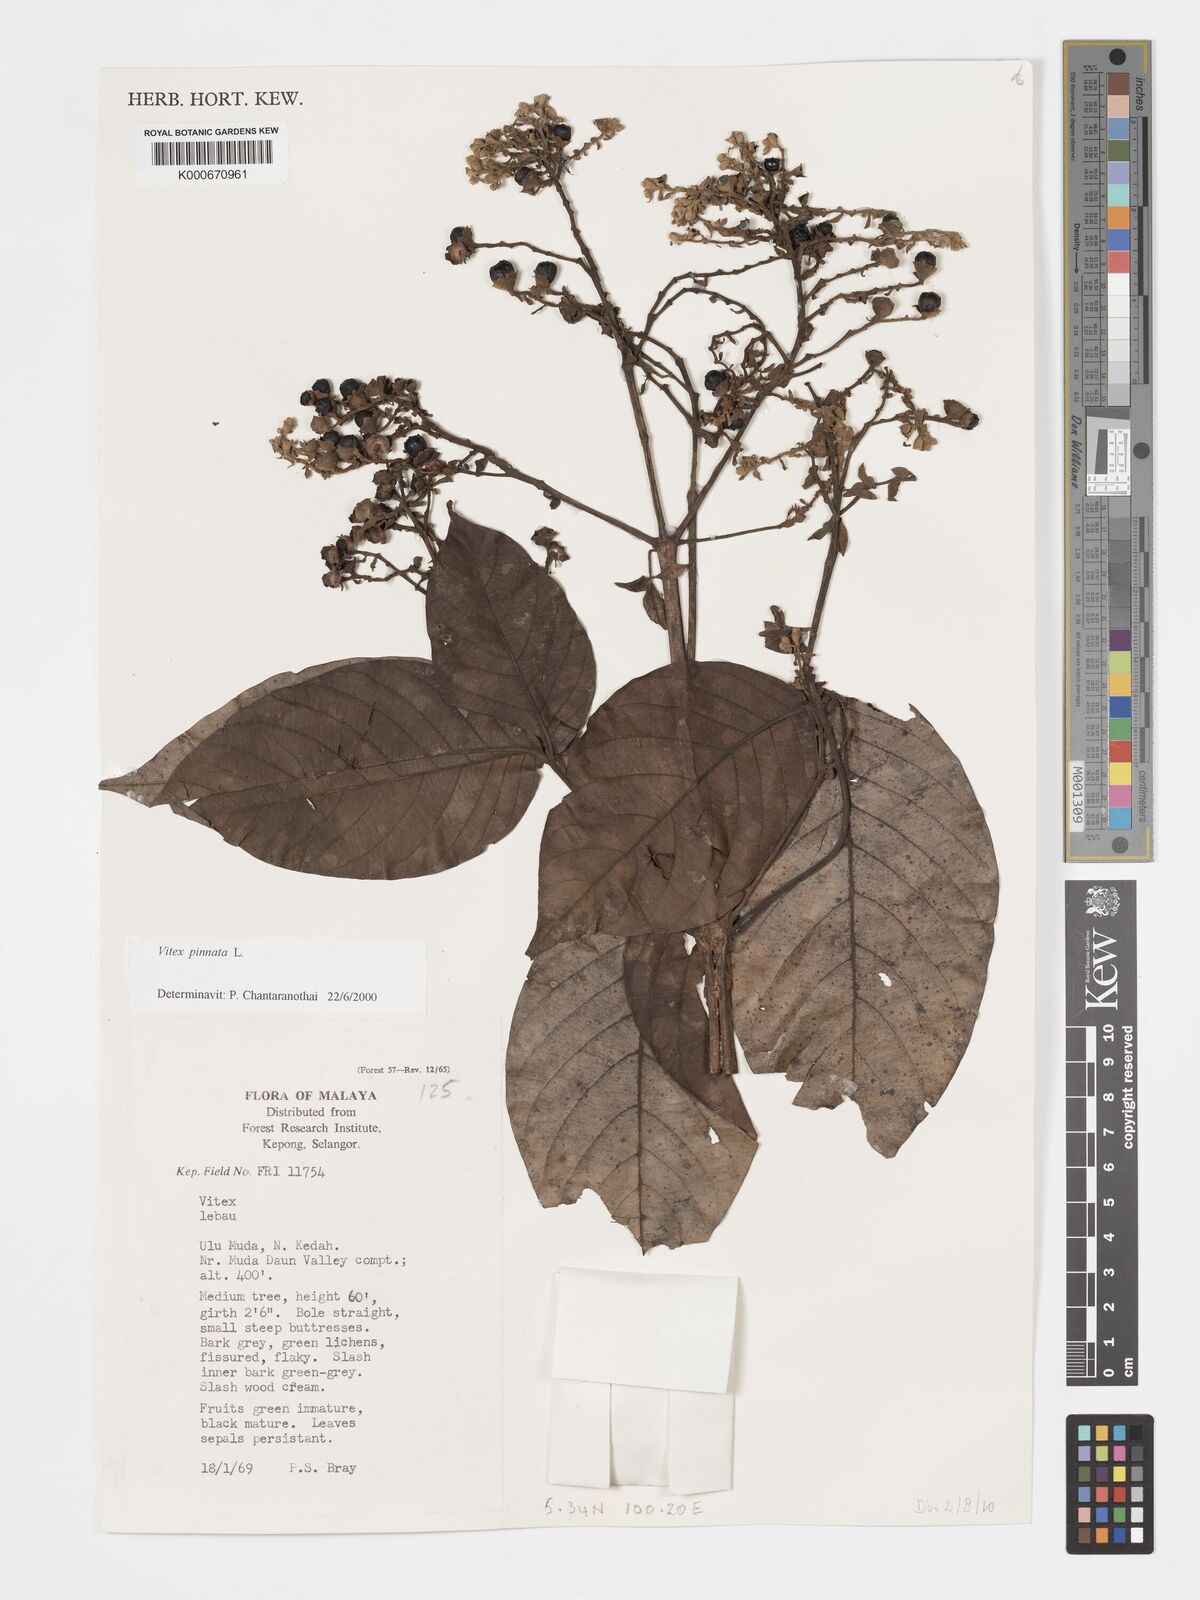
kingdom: Plantae
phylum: Tracheophyta
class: Magnoliopsida
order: Lamiales
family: Lamiaceae
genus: Vitex
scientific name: Vitex pinnata
